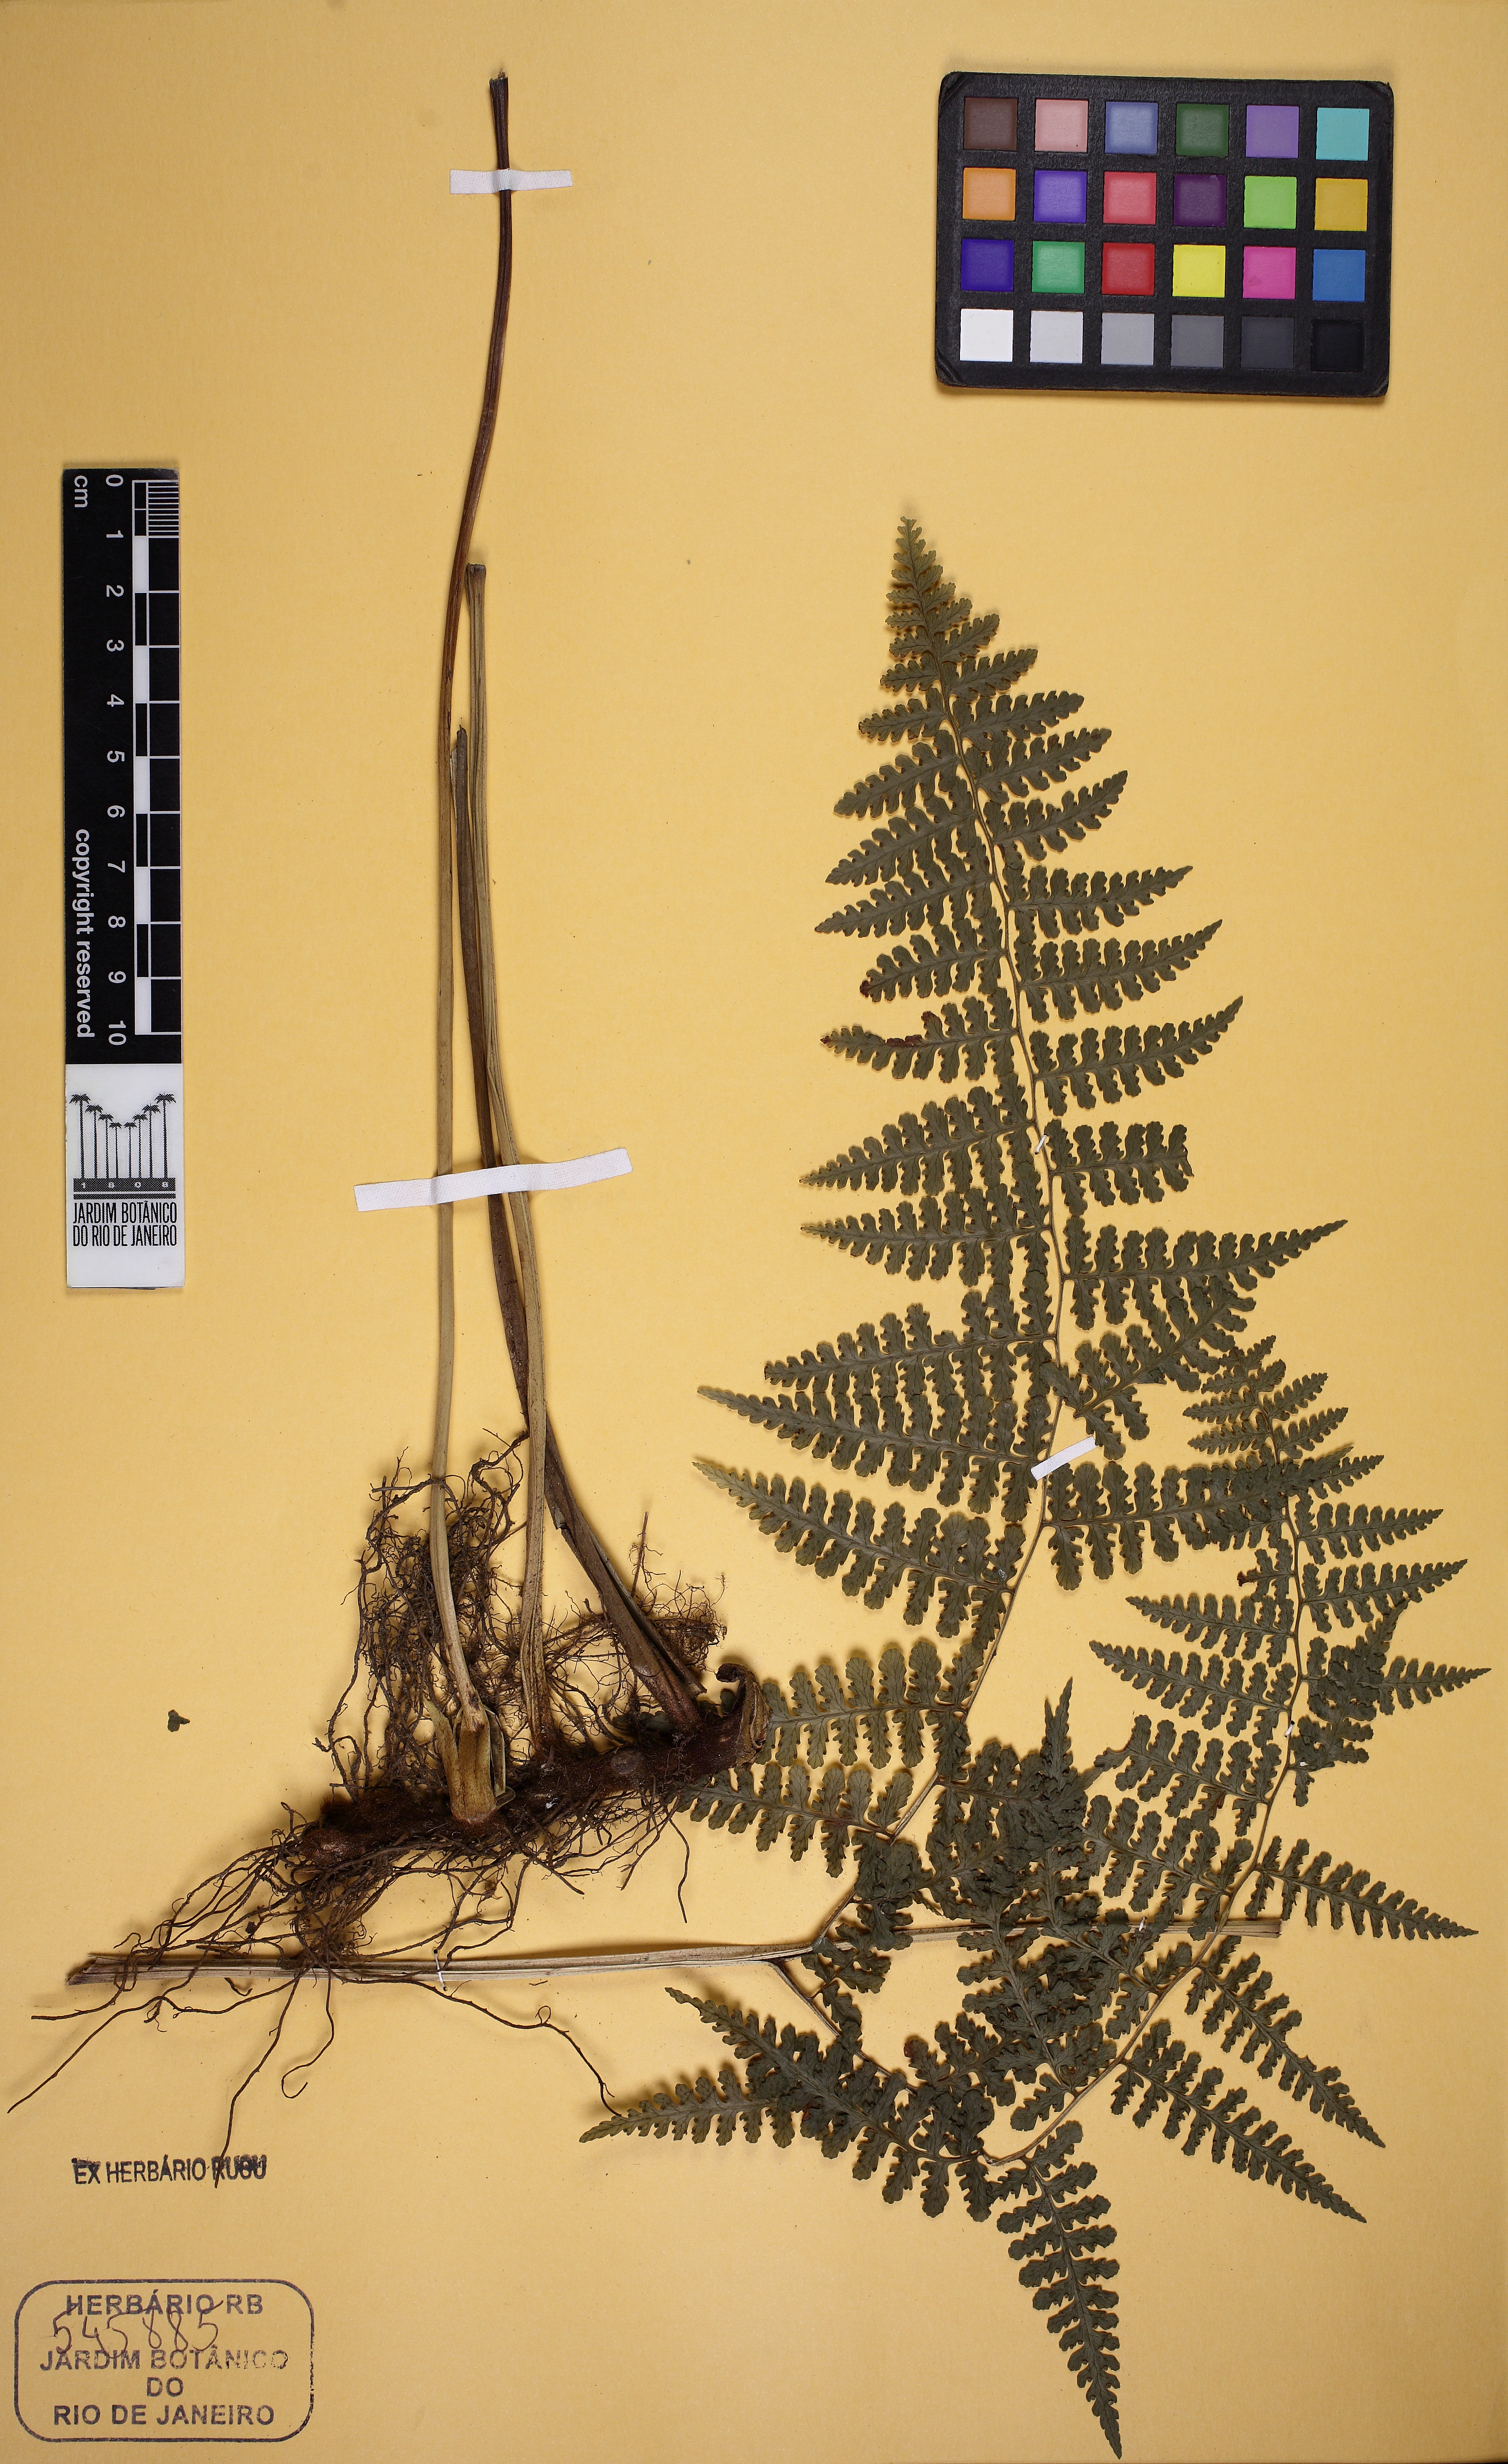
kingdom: Plantae
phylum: Tracheophyta
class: Polypodiopsida
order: Polypodiales
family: Dennstaedtiaceae
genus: Mucura
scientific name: Mucura globulifera
